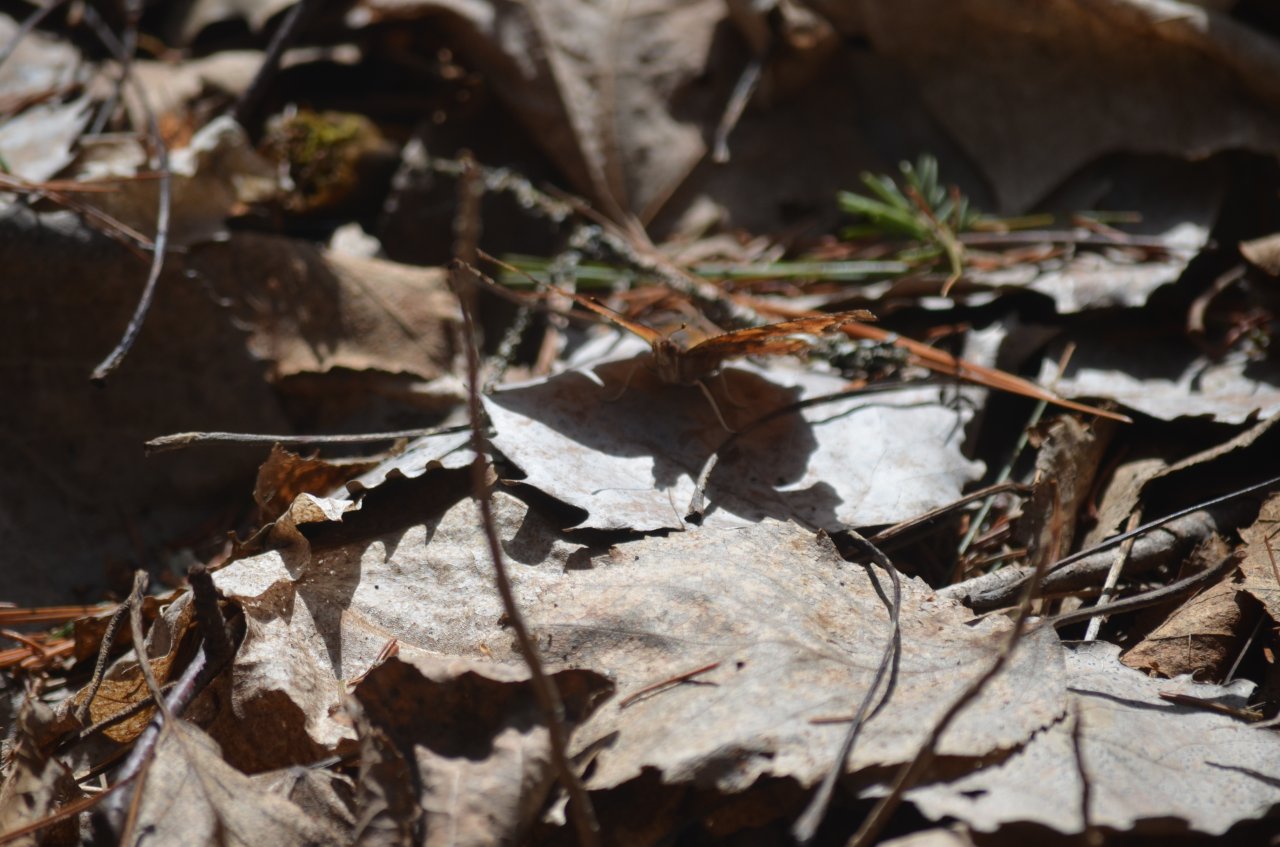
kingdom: Animalia
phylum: Arthropoda
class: Insecta
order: Lepidoptera
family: Nymphalidae
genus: Polygonia
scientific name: Polygonia progne
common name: Gray Comma
